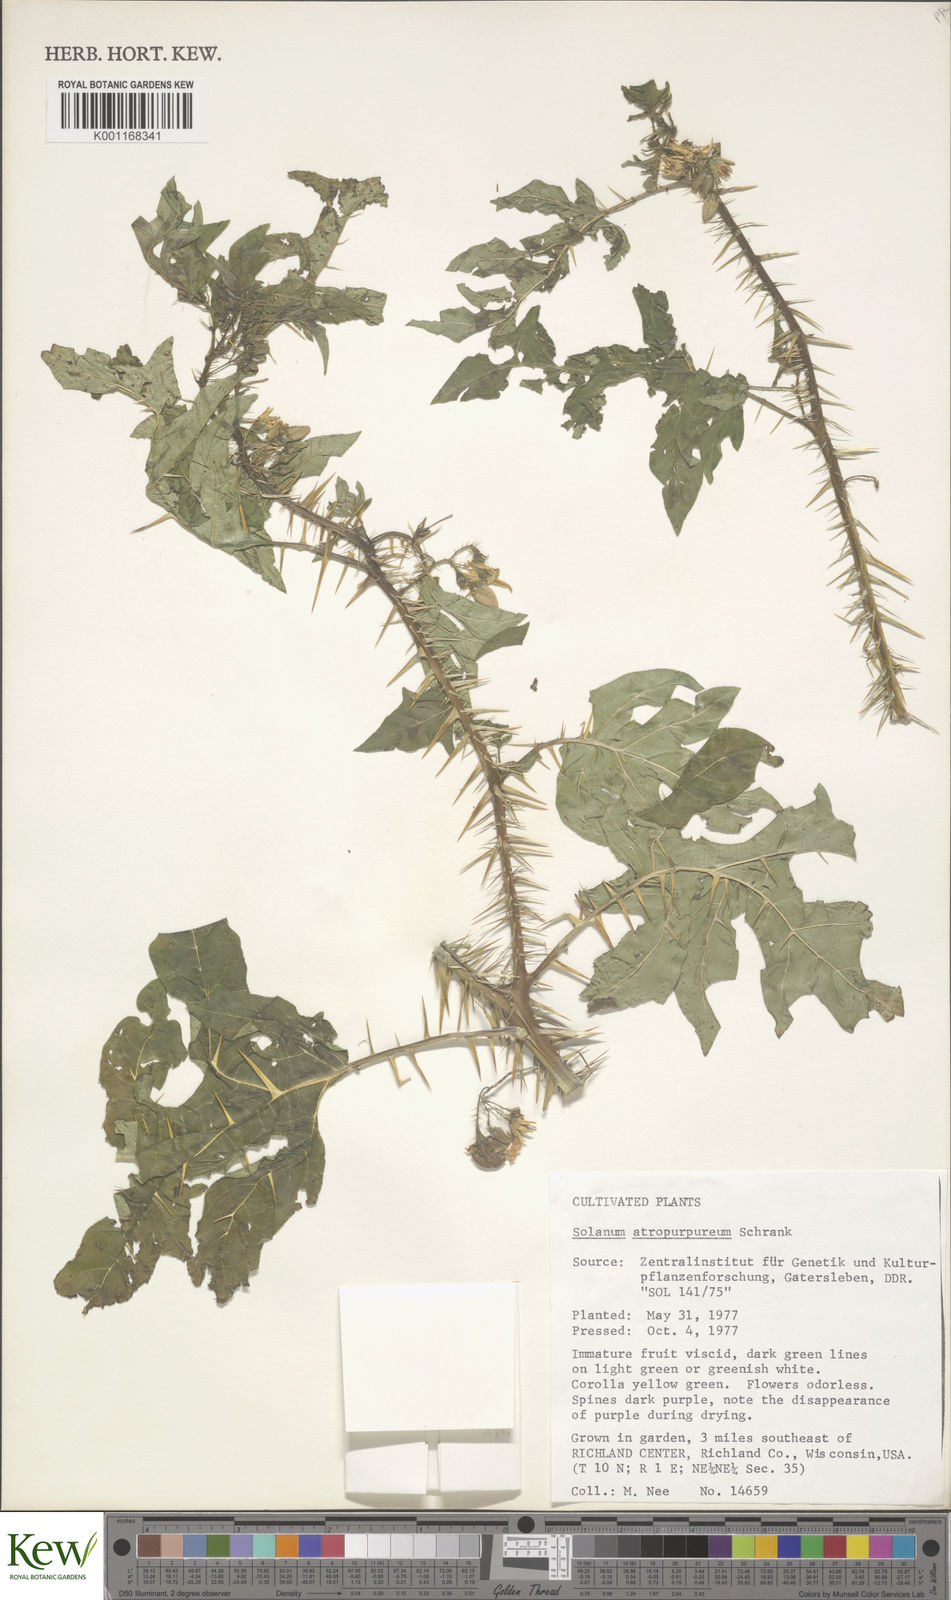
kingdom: Plantae
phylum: Tracheophyta
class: Magnoliopsida
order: Solanales
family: Solanaceae
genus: Solanum
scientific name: Solanum atropurpureum
